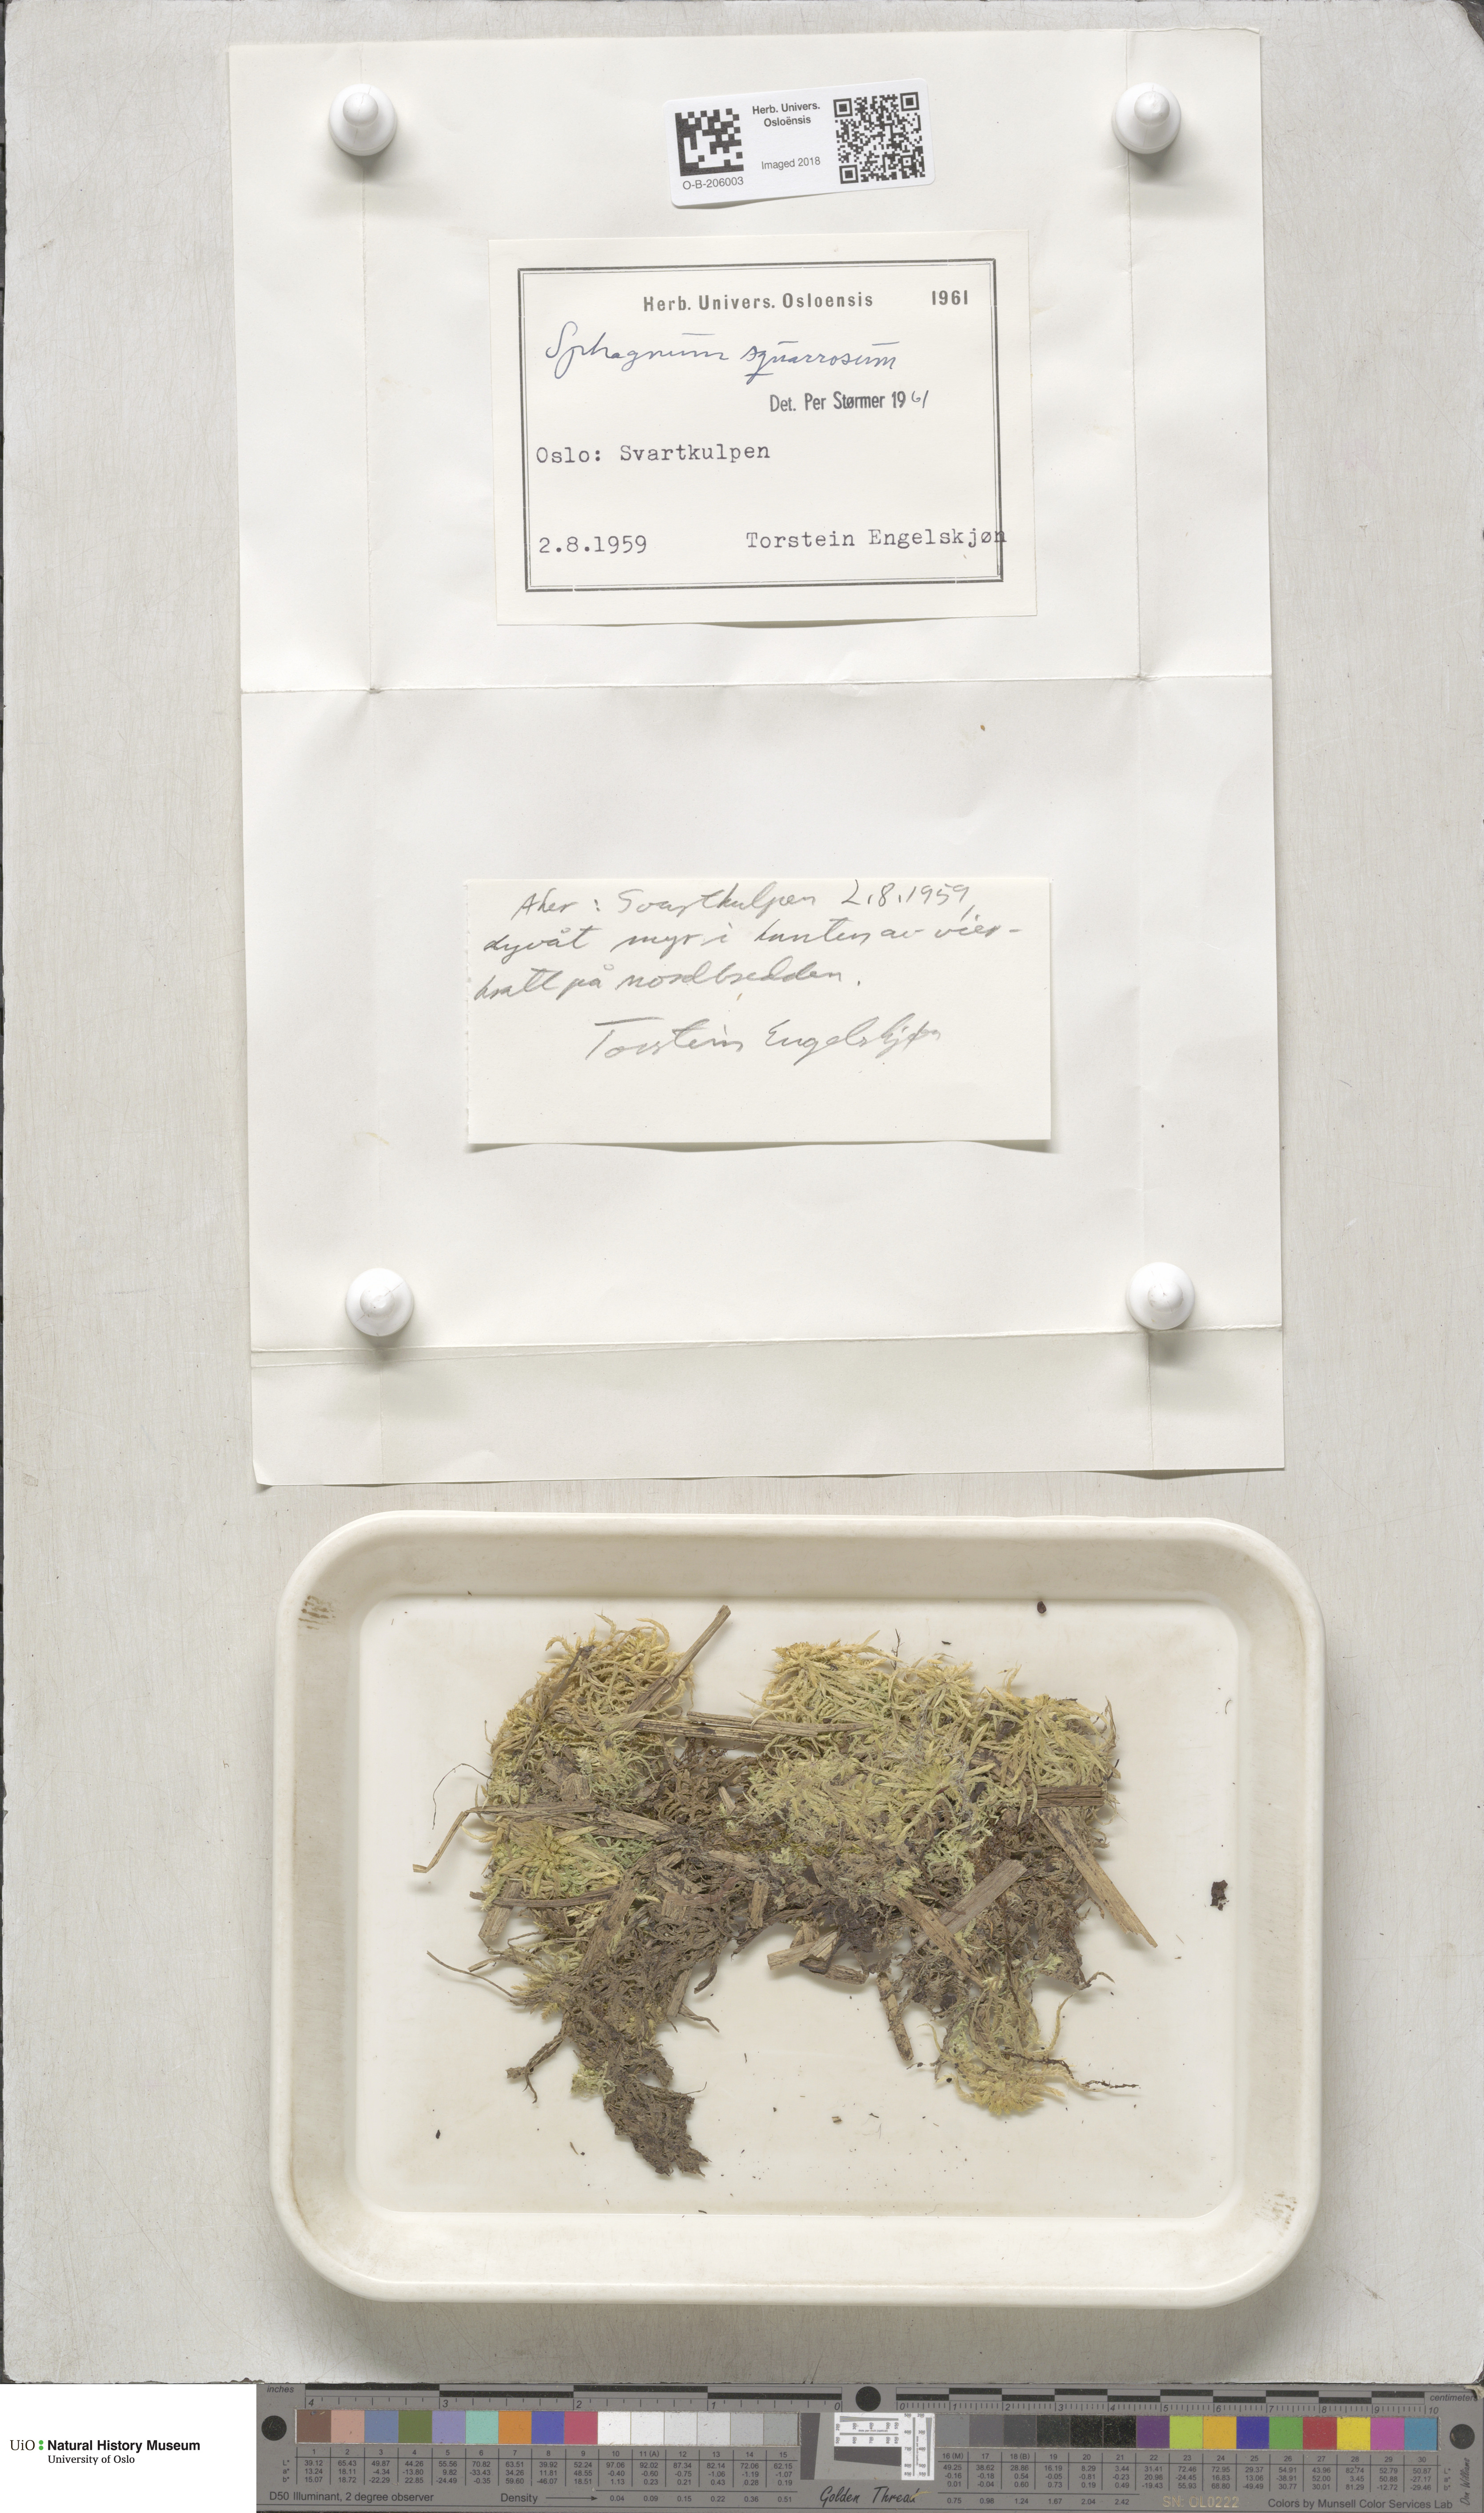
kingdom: Plantae
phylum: Bryophyta
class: Sphagnopsida
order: Sphagnales
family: Sphagnaceae
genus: Sphagnum
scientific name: Sphagnum squarrosum
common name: Shaggy peat moss
